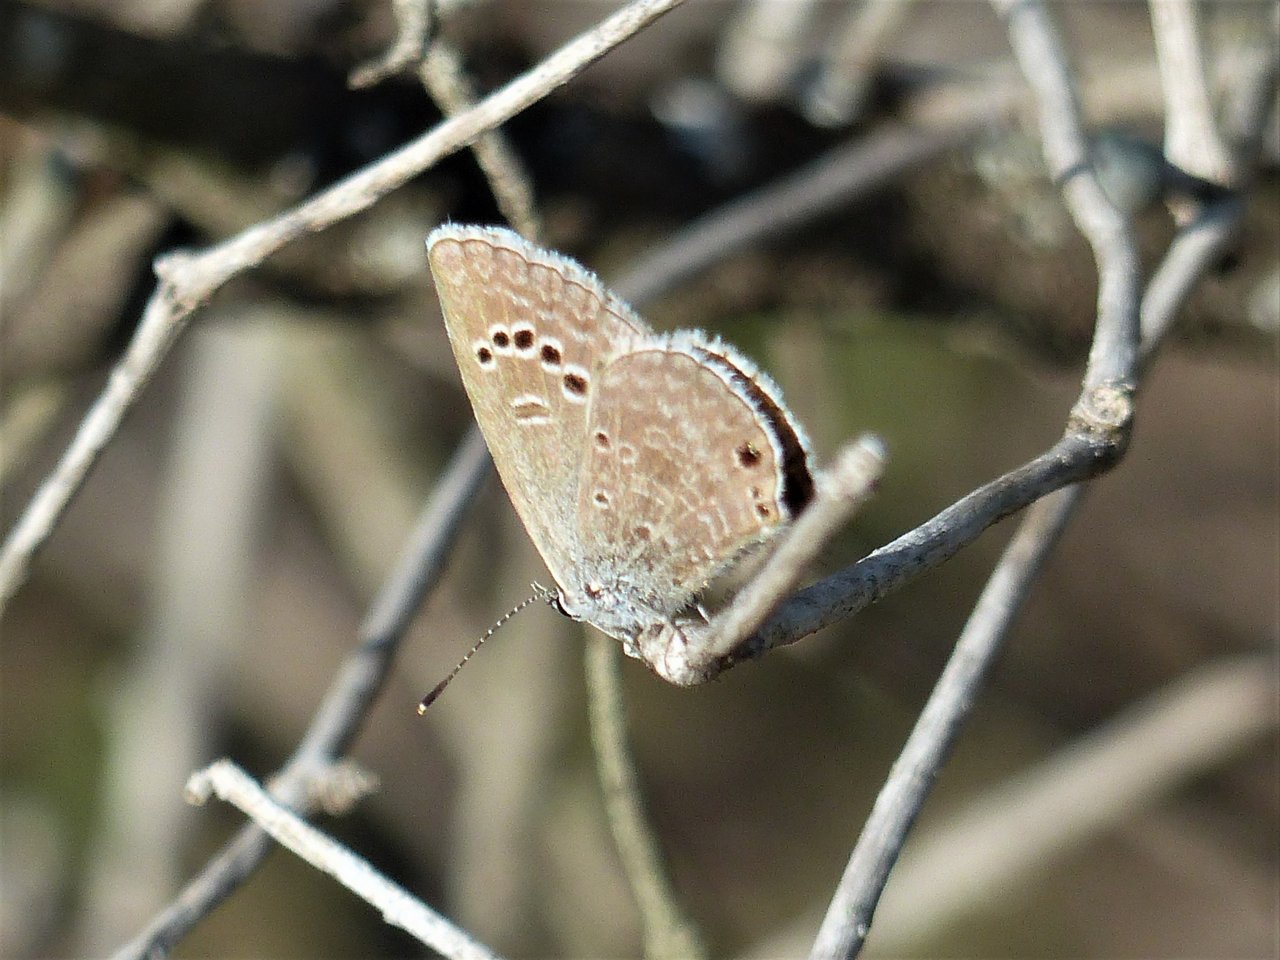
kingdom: Animalia
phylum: Arthropoda
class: Insecta
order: Lepidoptera
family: Lycaenidae
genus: Echinargus
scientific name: Echinargus isola
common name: Reakirt's Blue
